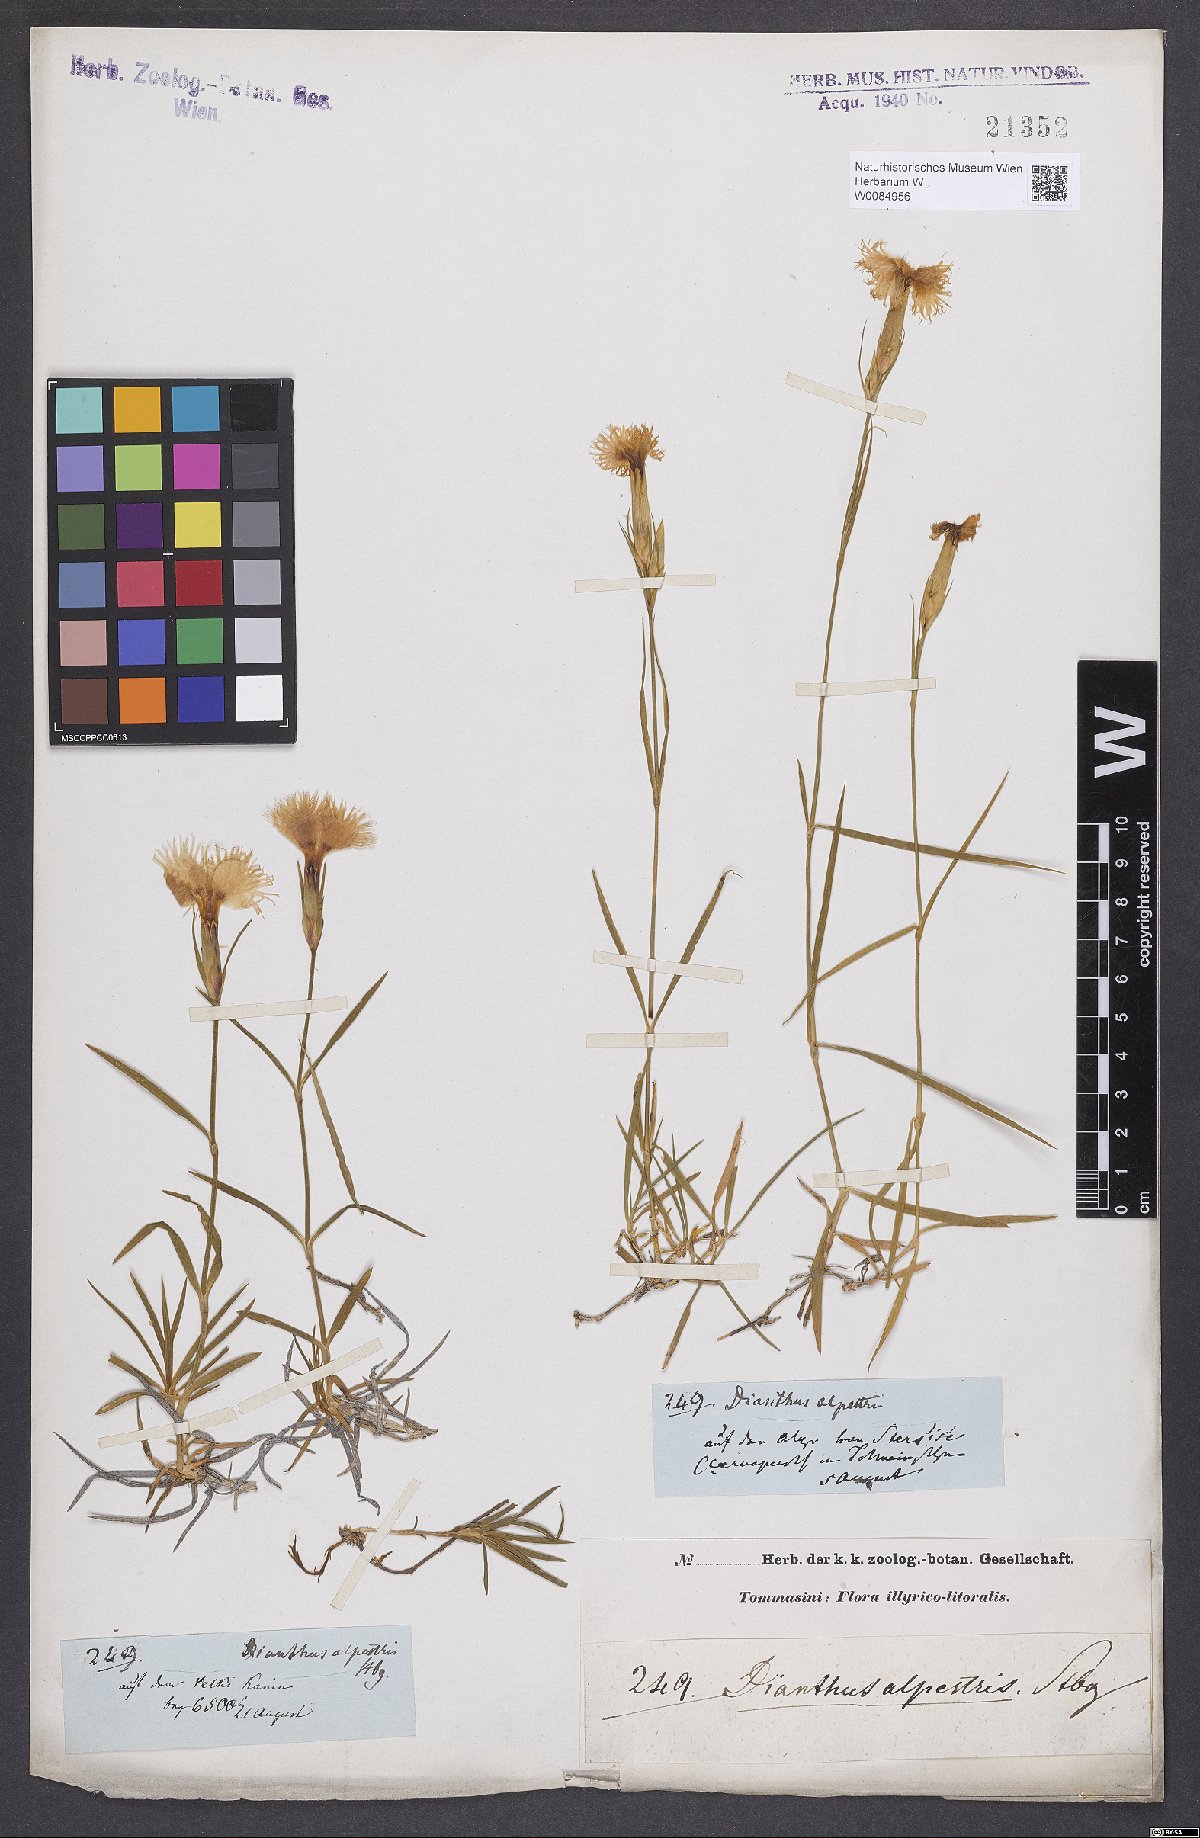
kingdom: Plantae
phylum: Tracheophyta
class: Magnoliopsida
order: Caryophyllales
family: Caryophyllaceae
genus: Dianthus
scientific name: Dianthus hyssopifolius
